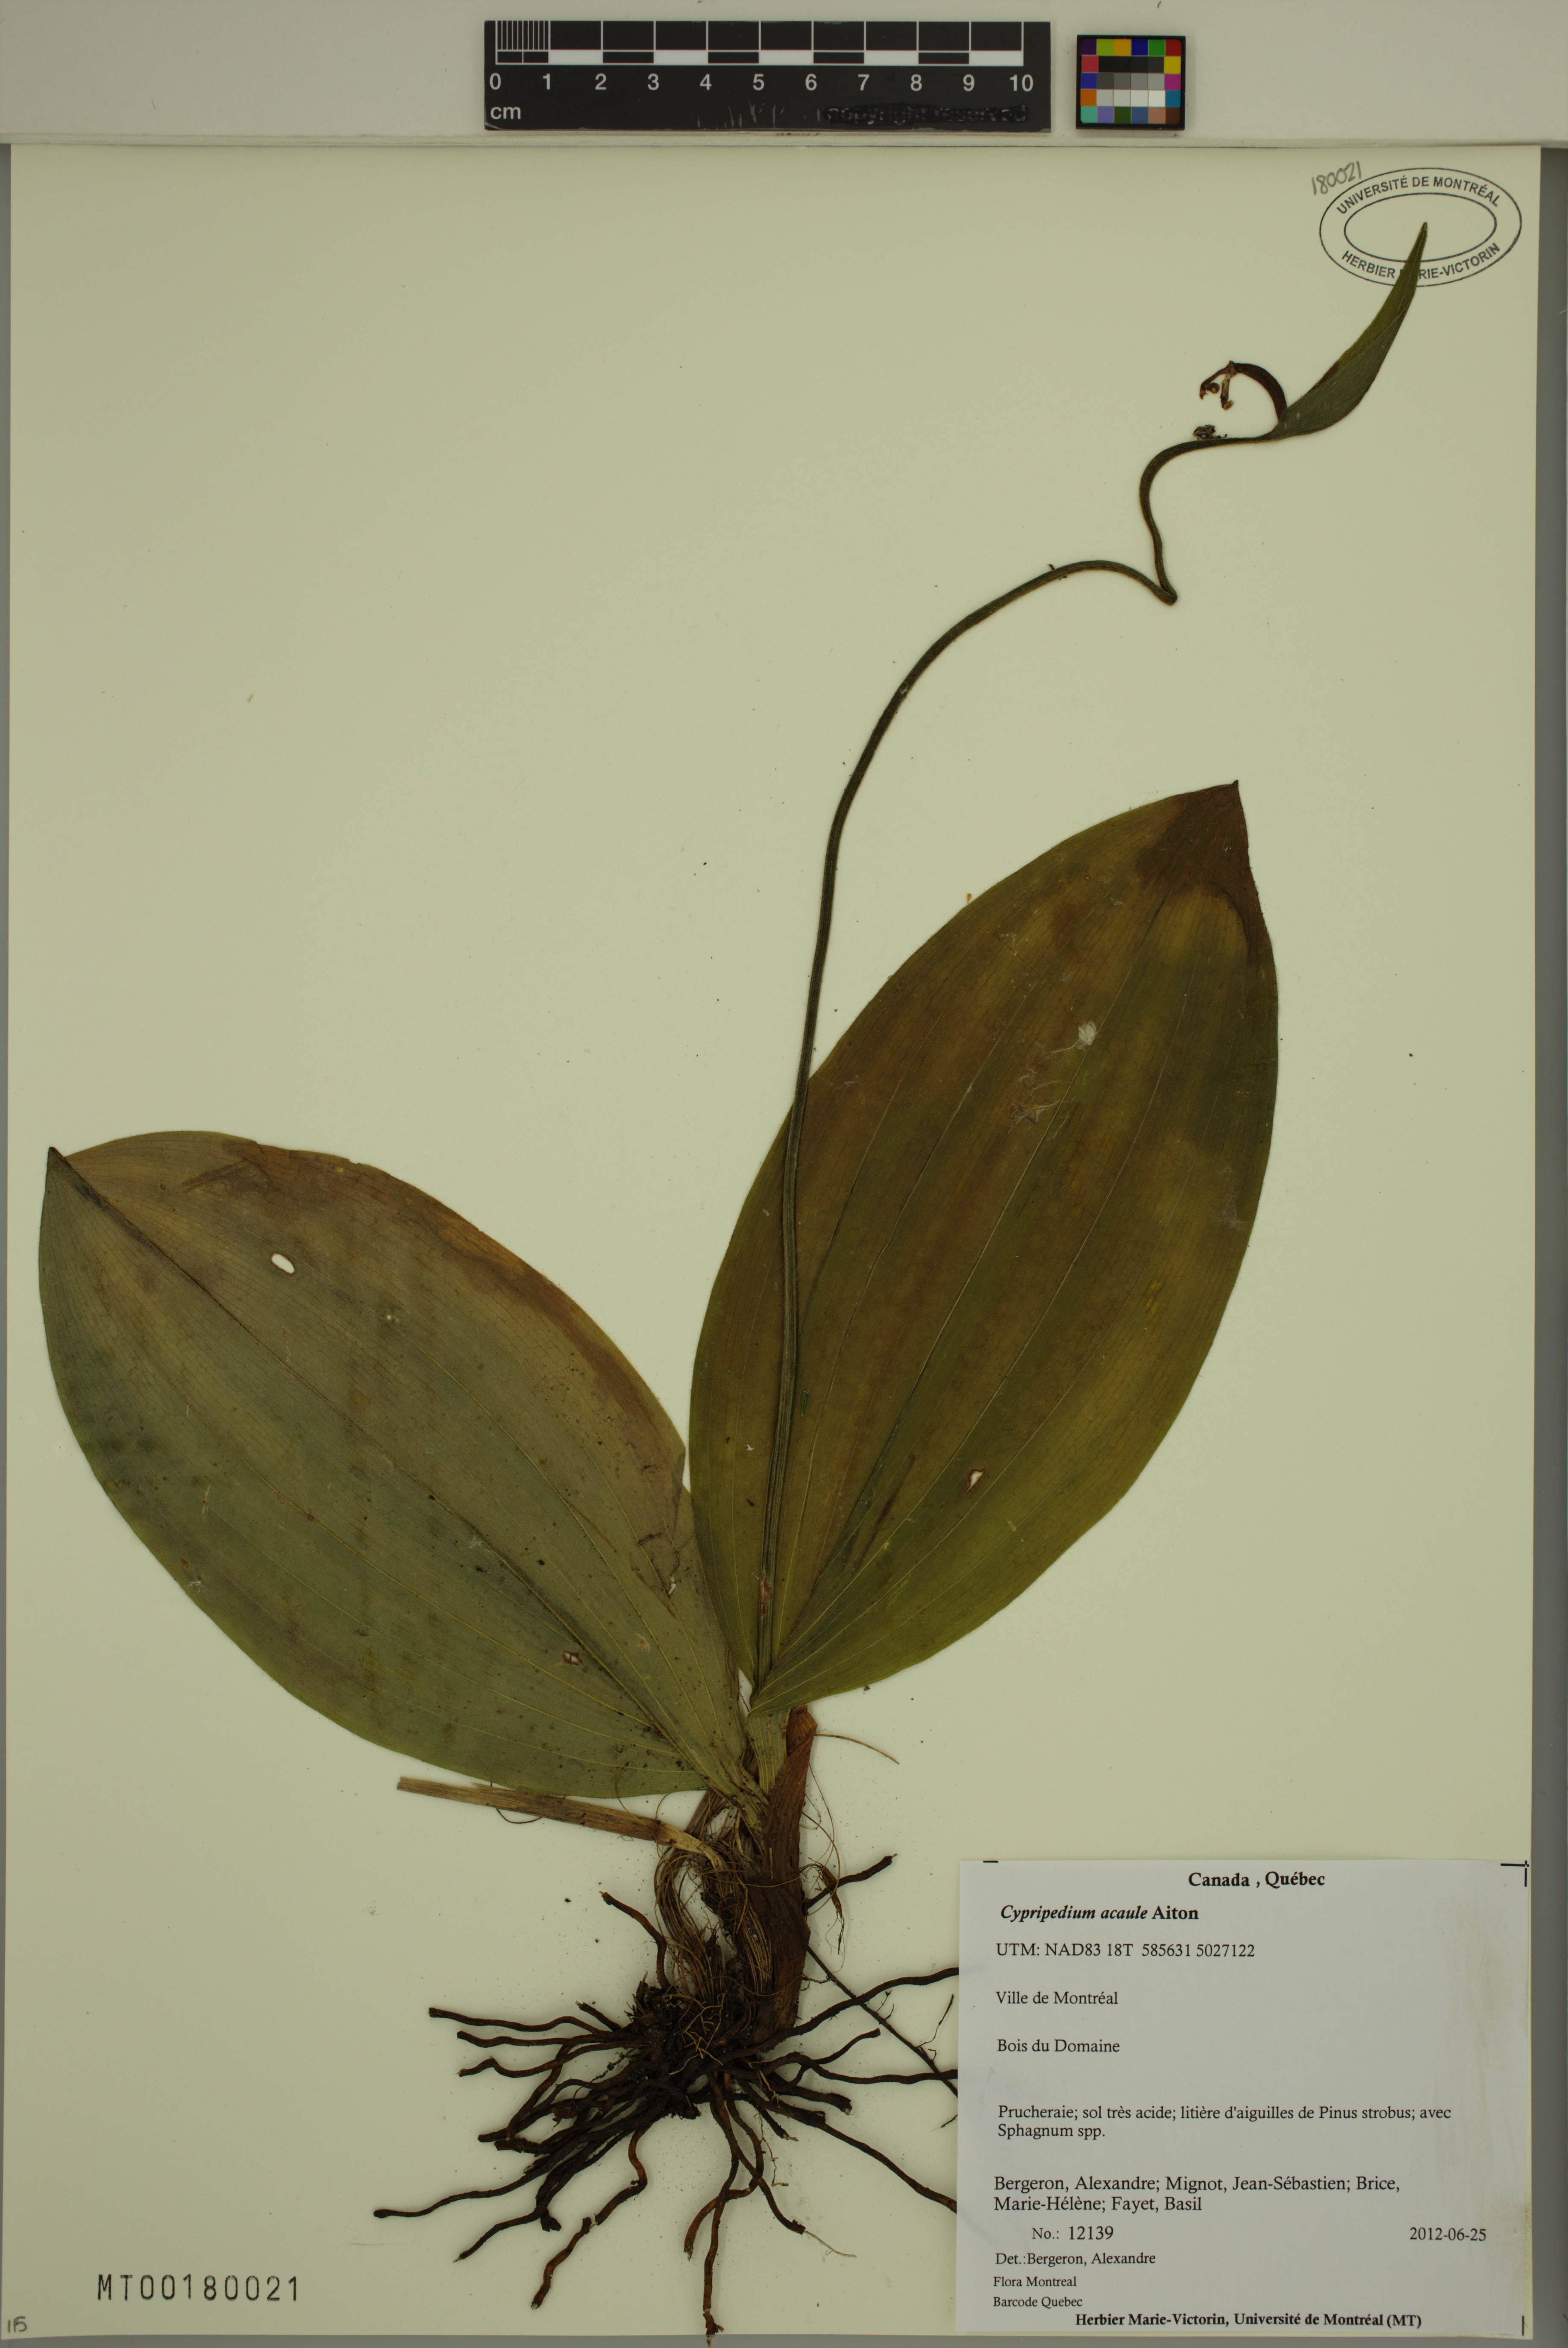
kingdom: Plantae
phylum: Tracheophyta
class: Liliopsida
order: Asparagales
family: Orchidaceae
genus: Cypripedium
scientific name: Cypripedium acaule
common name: Pink lady's-slipper
